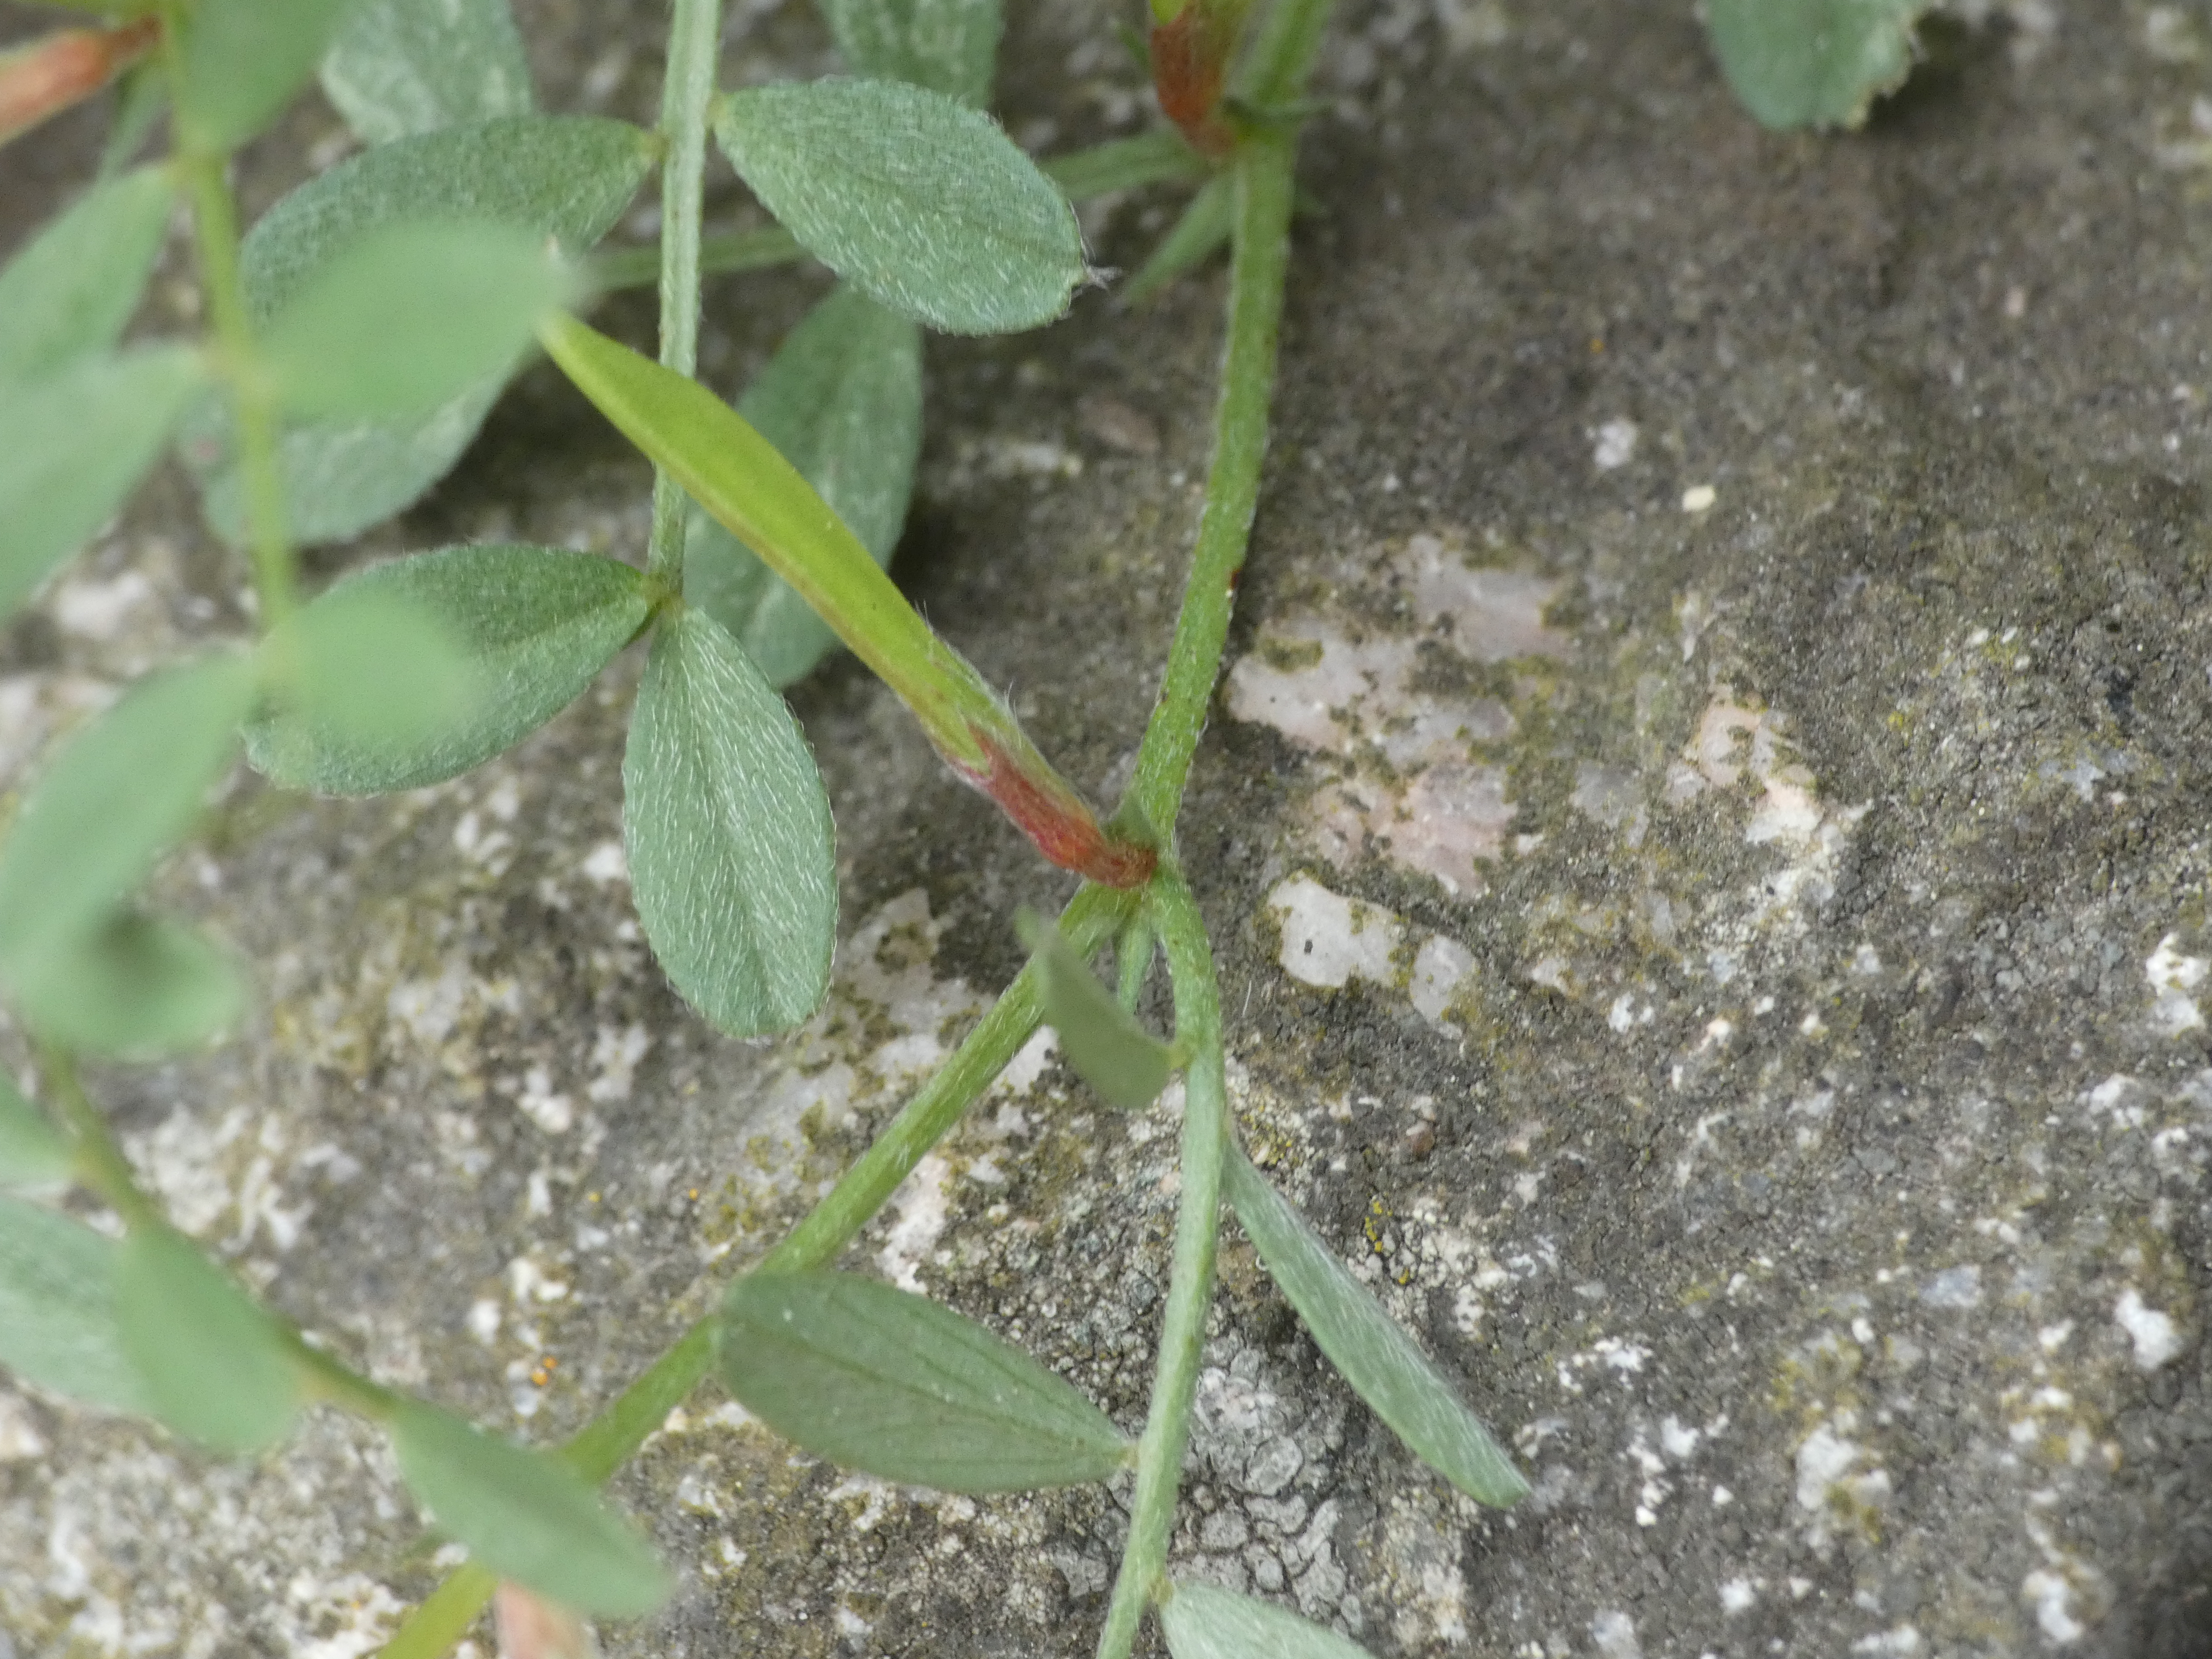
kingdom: Plantae
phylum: Tracheophyta
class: Magnoliopsida
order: Fabales
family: Fabaceae
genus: Vicia
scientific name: Vicia lathyroides
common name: Vår-vikke
